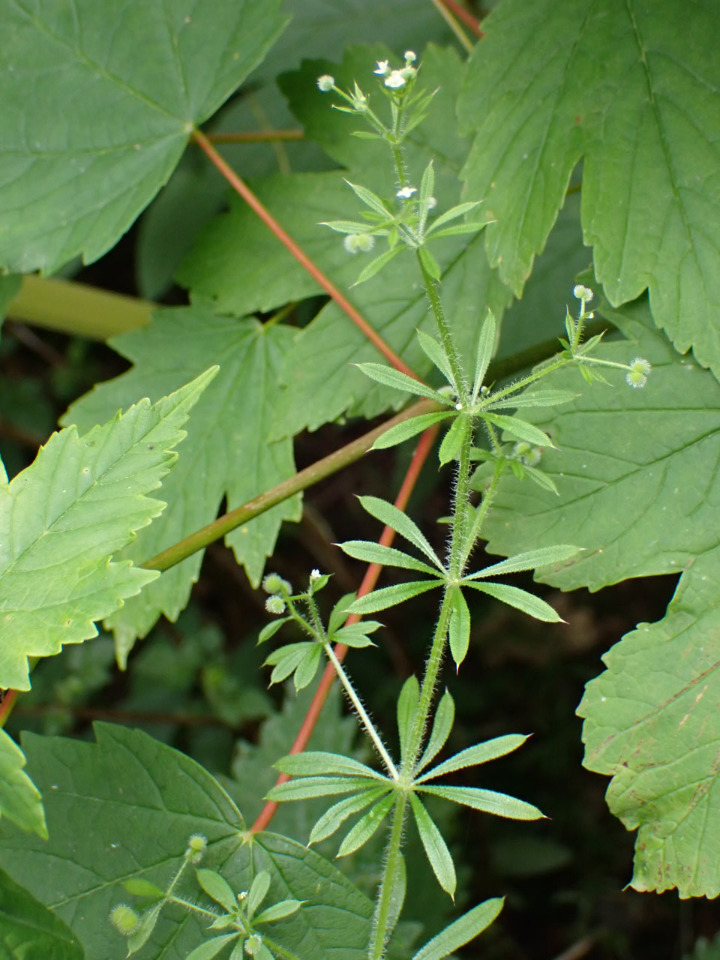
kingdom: Plantae
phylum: Tracheophyta
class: Magnoliopsida
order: Gentianales
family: Rubiaceae
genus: Galium
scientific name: Galium aparine
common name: Burre-snerre
